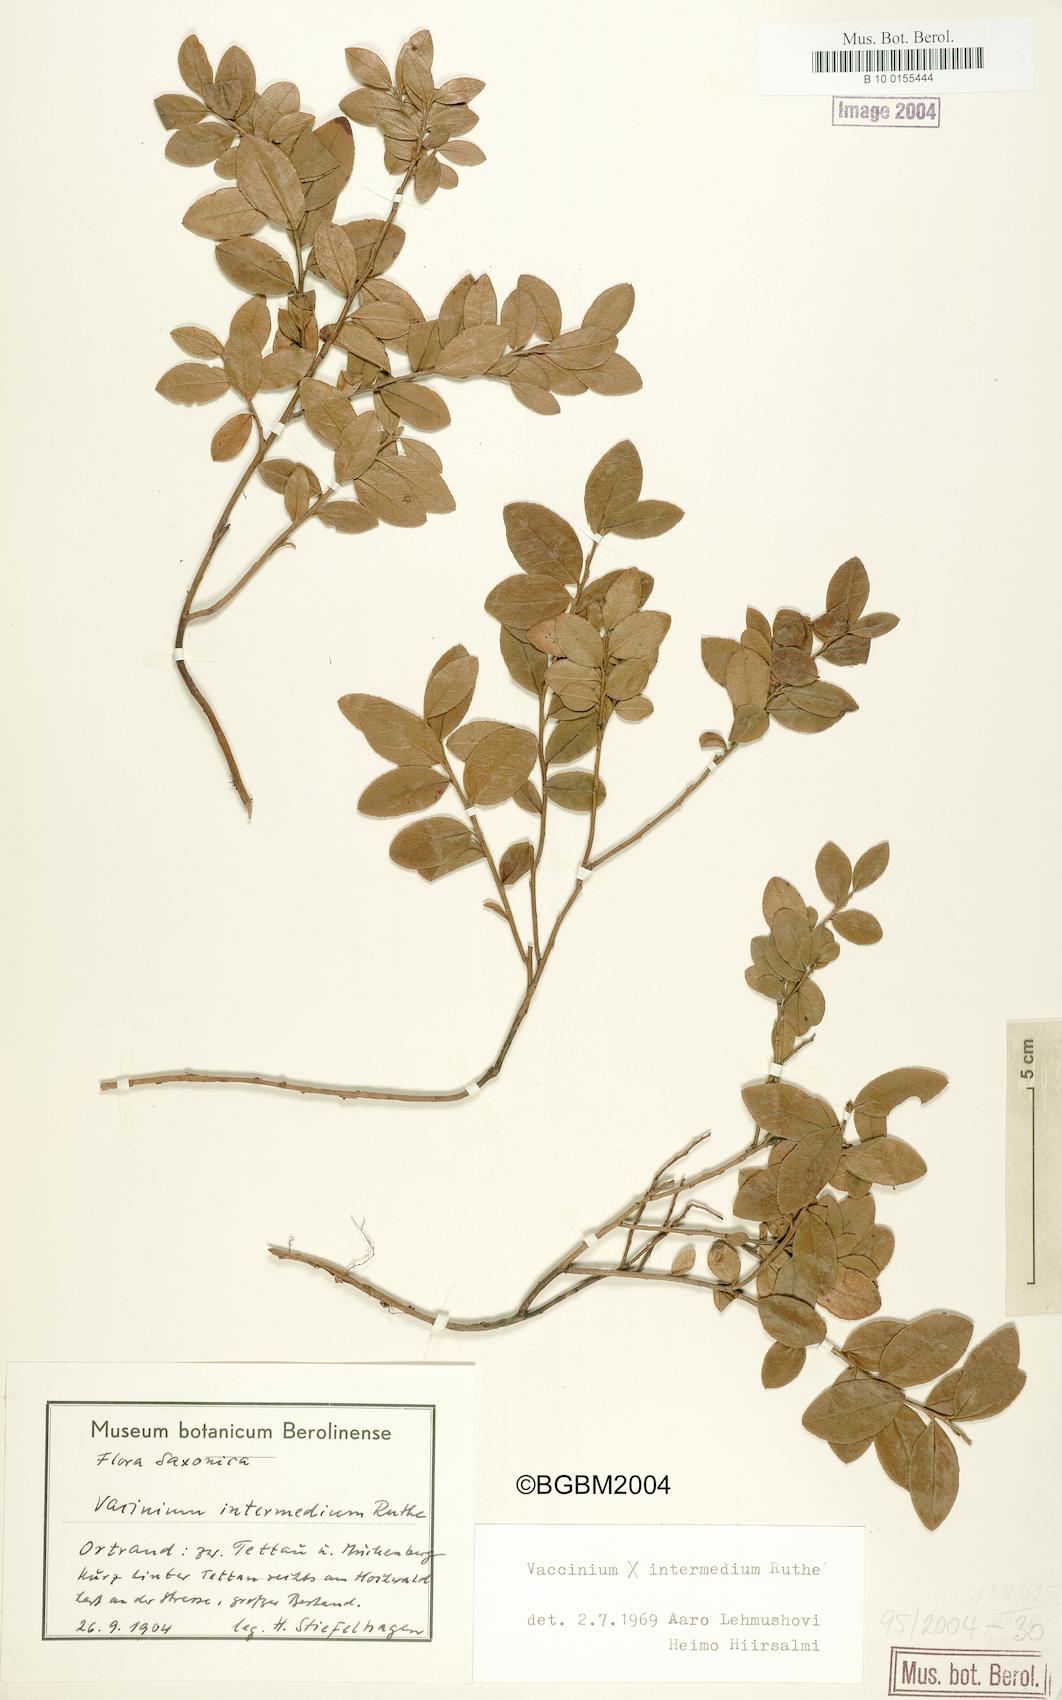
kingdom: Plantae
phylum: Tracheophyta
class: Magnoliopsida
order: Ericales
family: Ericaceae
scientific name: Ericaceae
